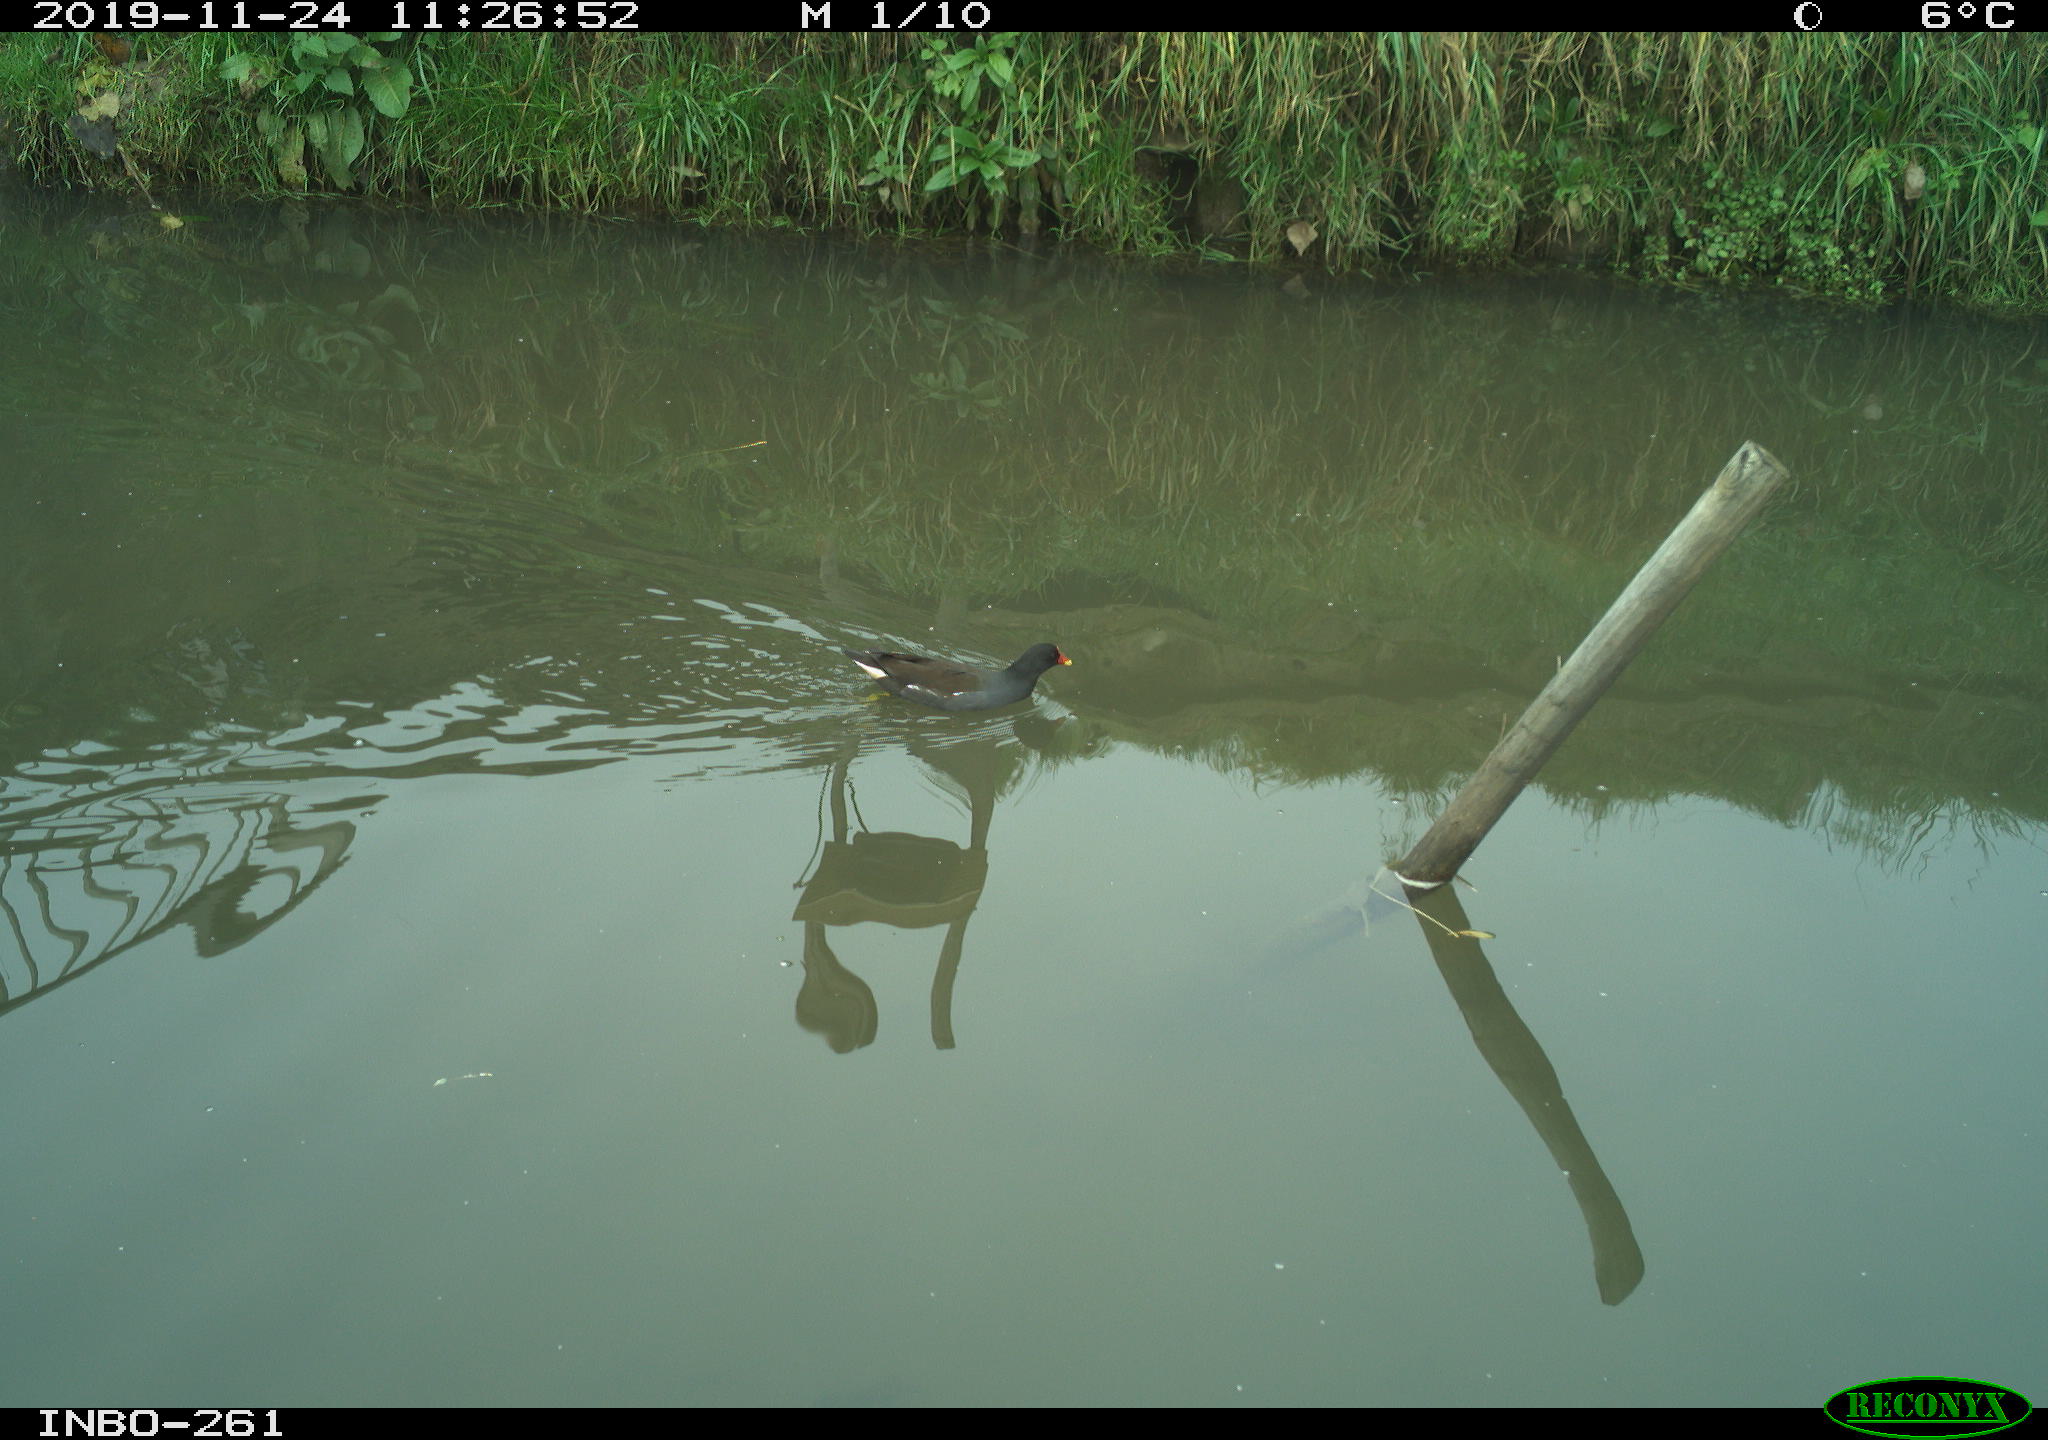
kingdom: Animalia
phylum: Chordata
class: Aves
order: Gruiformes
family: Rallidae
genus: Gallinula
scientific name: Gallinula chloropus
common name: Common moorhen
